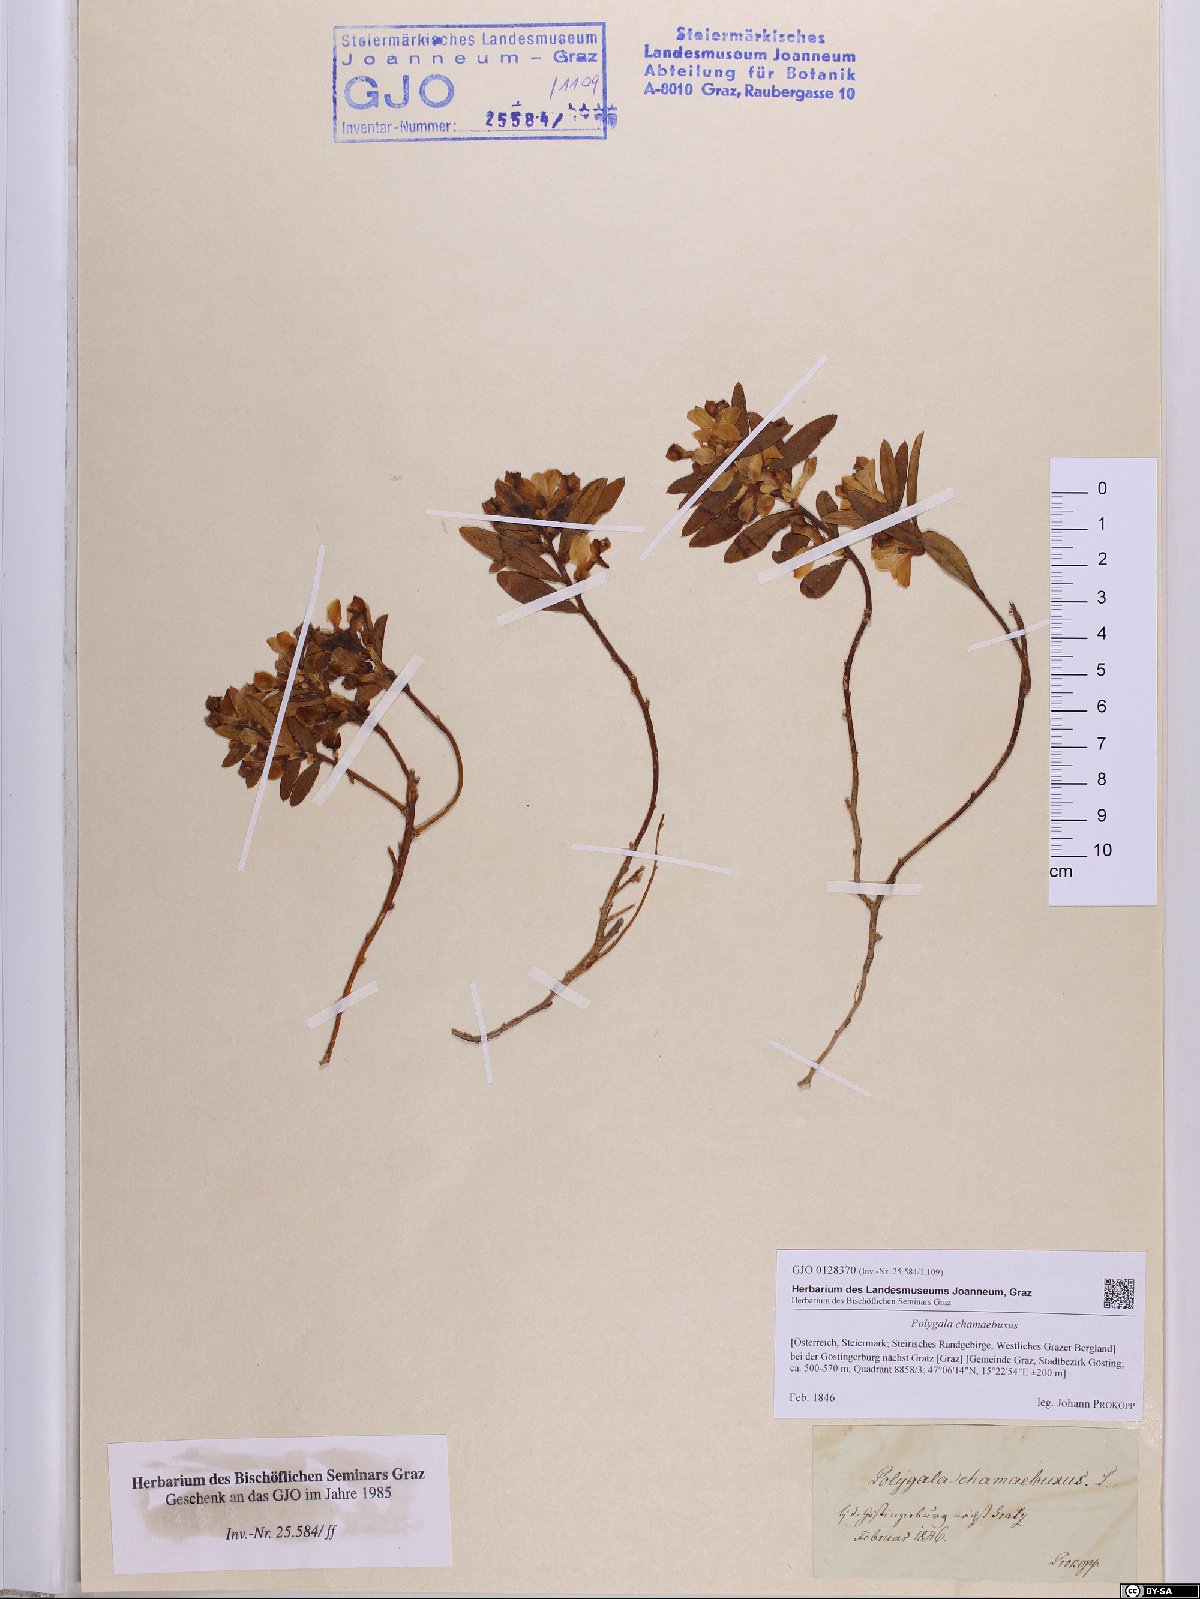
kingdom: Plantae
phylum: Tracheophyta
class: Magnoliopsida
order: Fabales
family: Polygalaceae
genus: Polygaloides
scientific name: Polygaloides chamaebuxus
